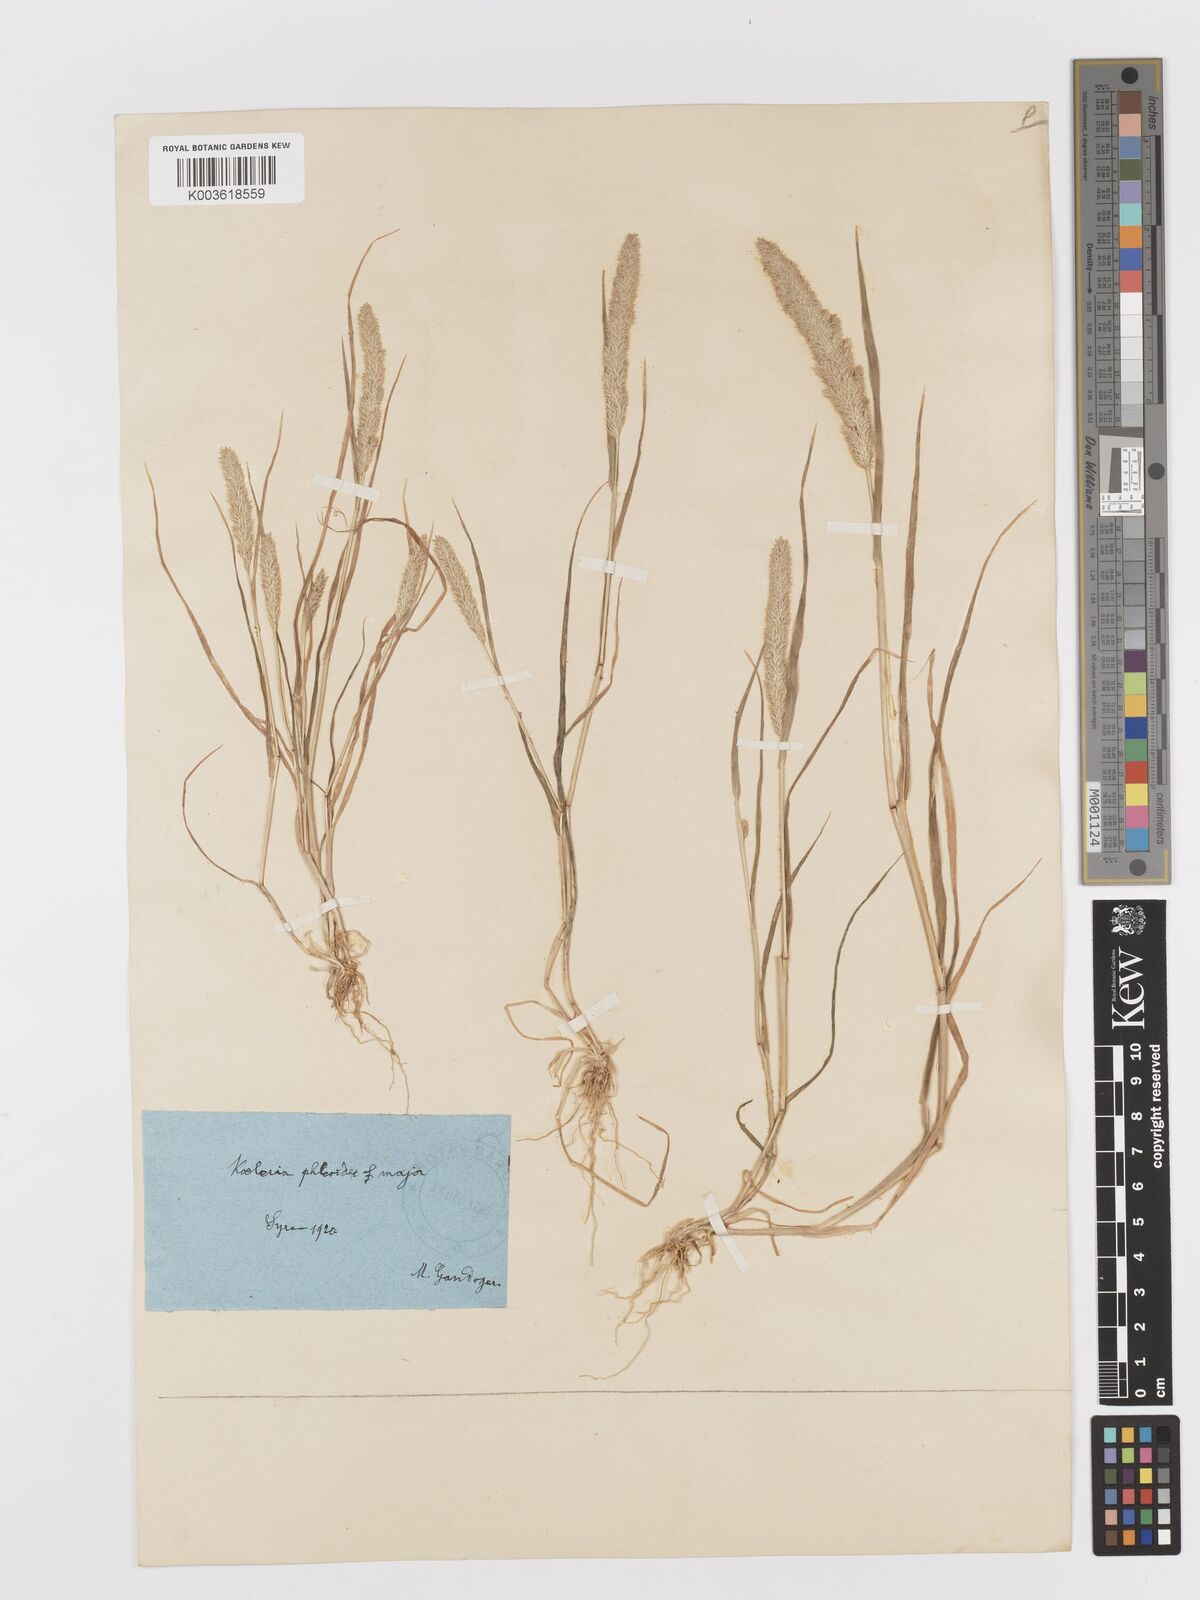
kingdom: Plantae
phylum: Tracheophyta
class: Liliopsida
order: Poales
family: Poaceae
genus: Rostraria
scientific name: Rostraria cristata
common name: Mediterranean hair-grass
